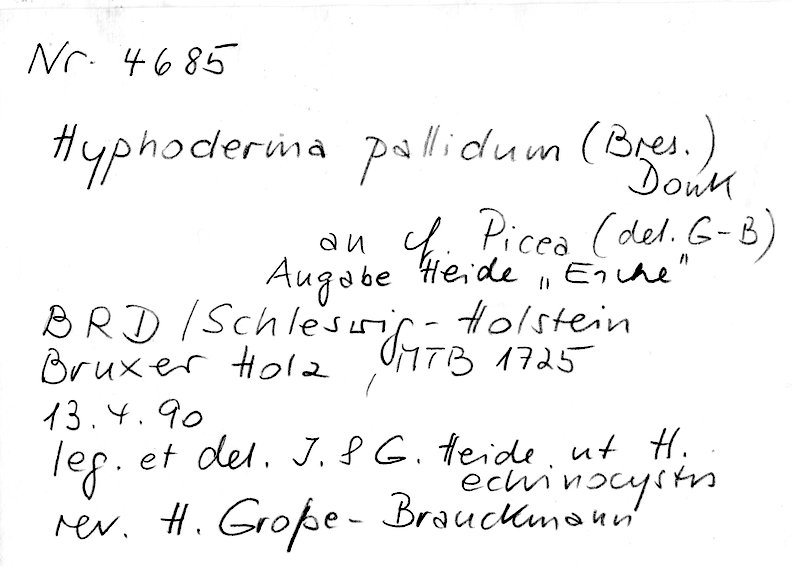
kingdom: Fungi
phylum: Basidiomycota
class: Agaricomycetes
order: Hymenochaetales
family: Rickenellaceae
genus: Peniophorella
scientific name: Peniophorella pallida
